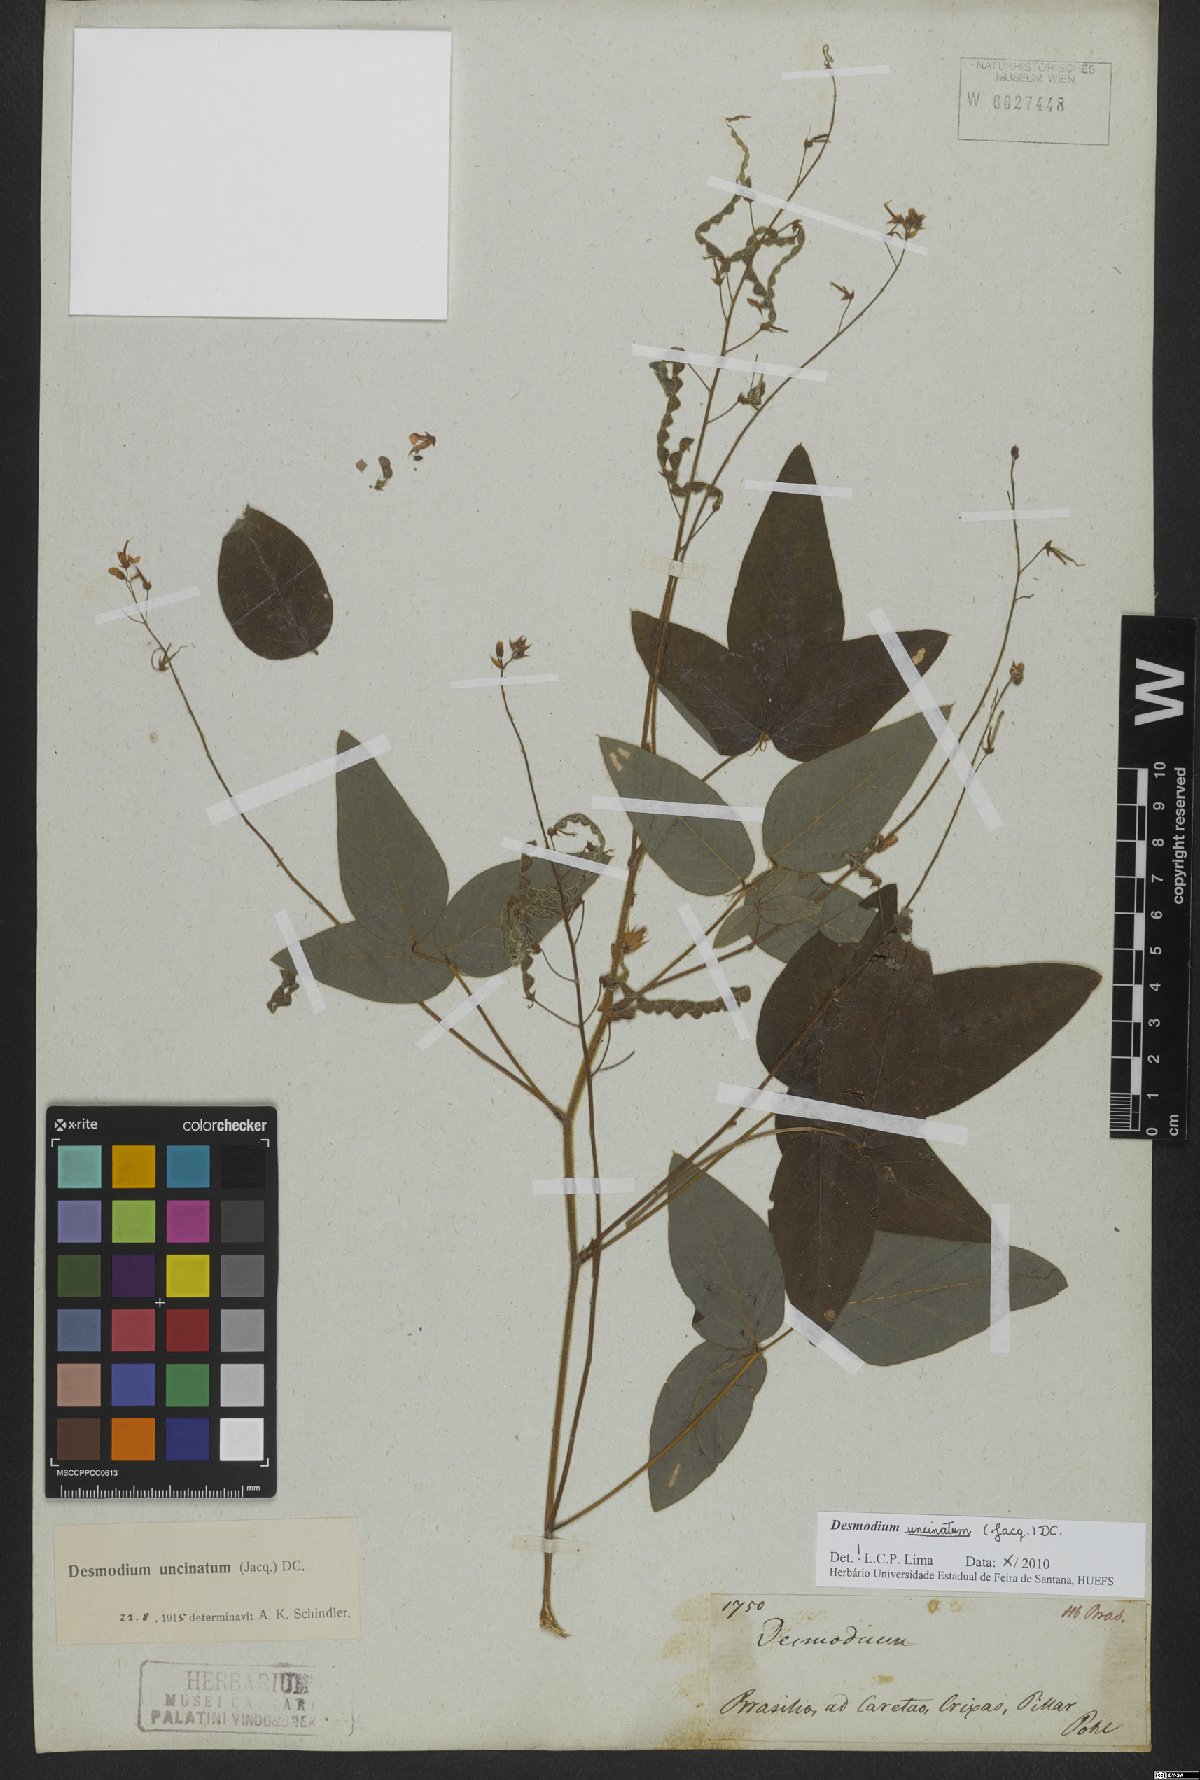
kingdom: Plantae
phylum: Tracheophyta
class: Magnoliopsida
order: Fabales
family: Fabaceae
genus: Desmodium
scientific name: Desmodium uncinatum
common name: Silverleaf desmodium
